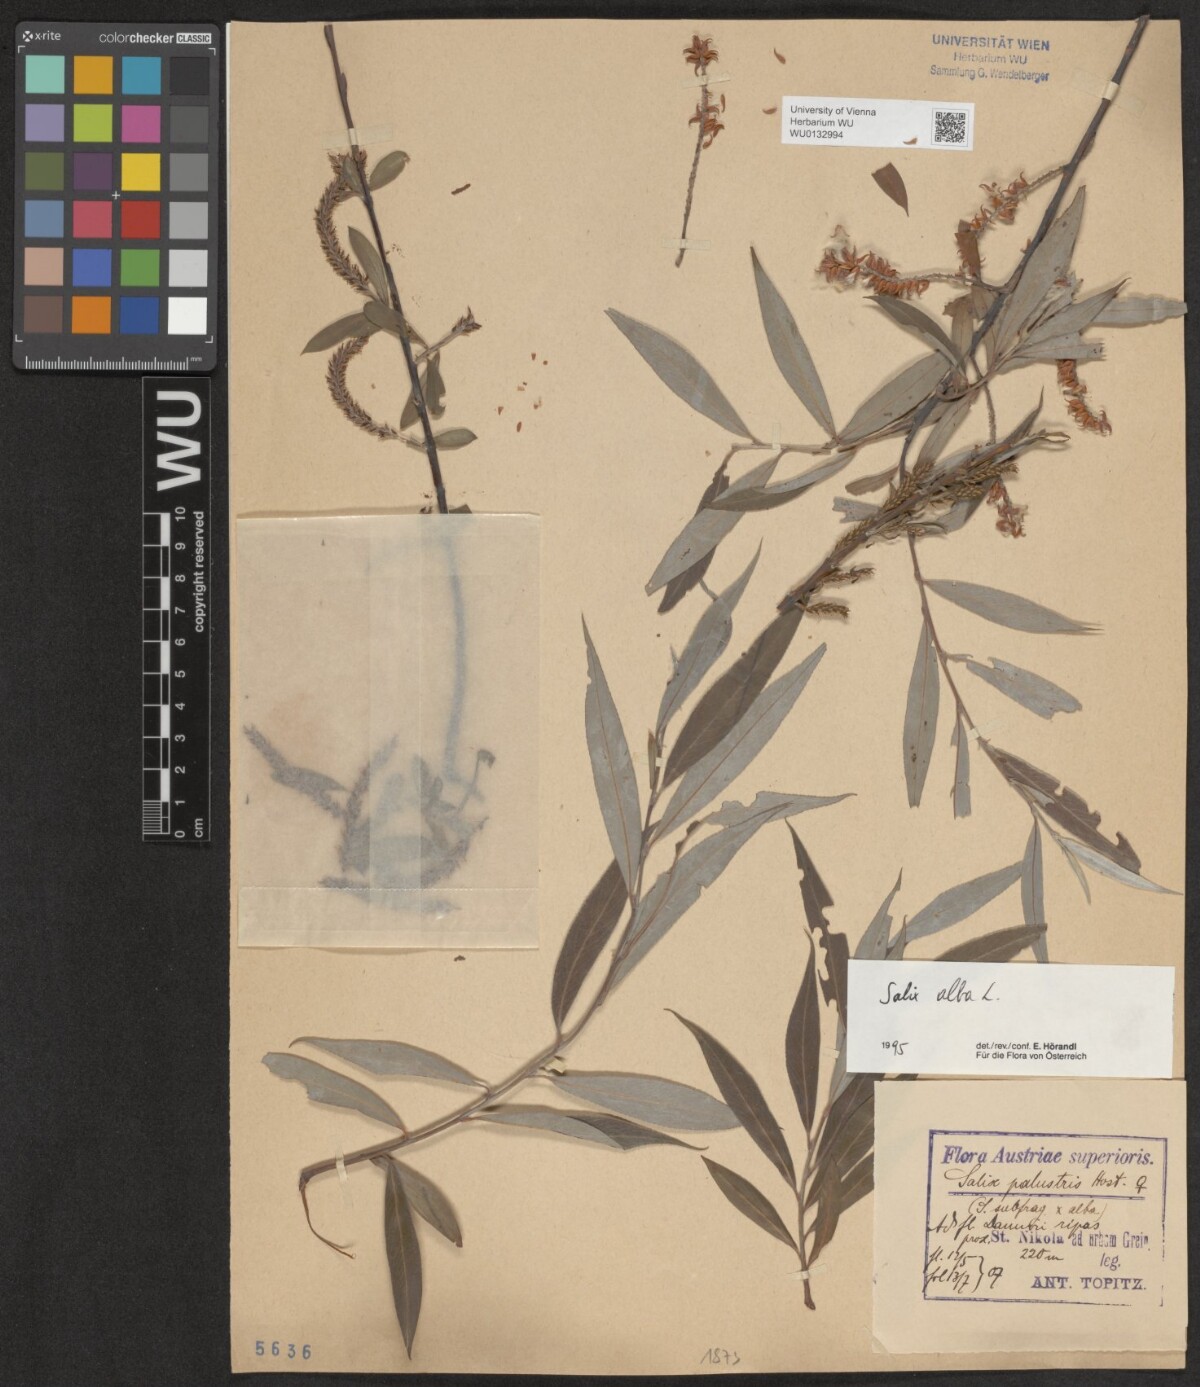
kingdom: Plantae
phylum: Tracheophyta
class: Magnoliopsida
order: Malpighiales
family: Salicaceae
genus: Salix
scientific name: Salix alba
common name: White willow
